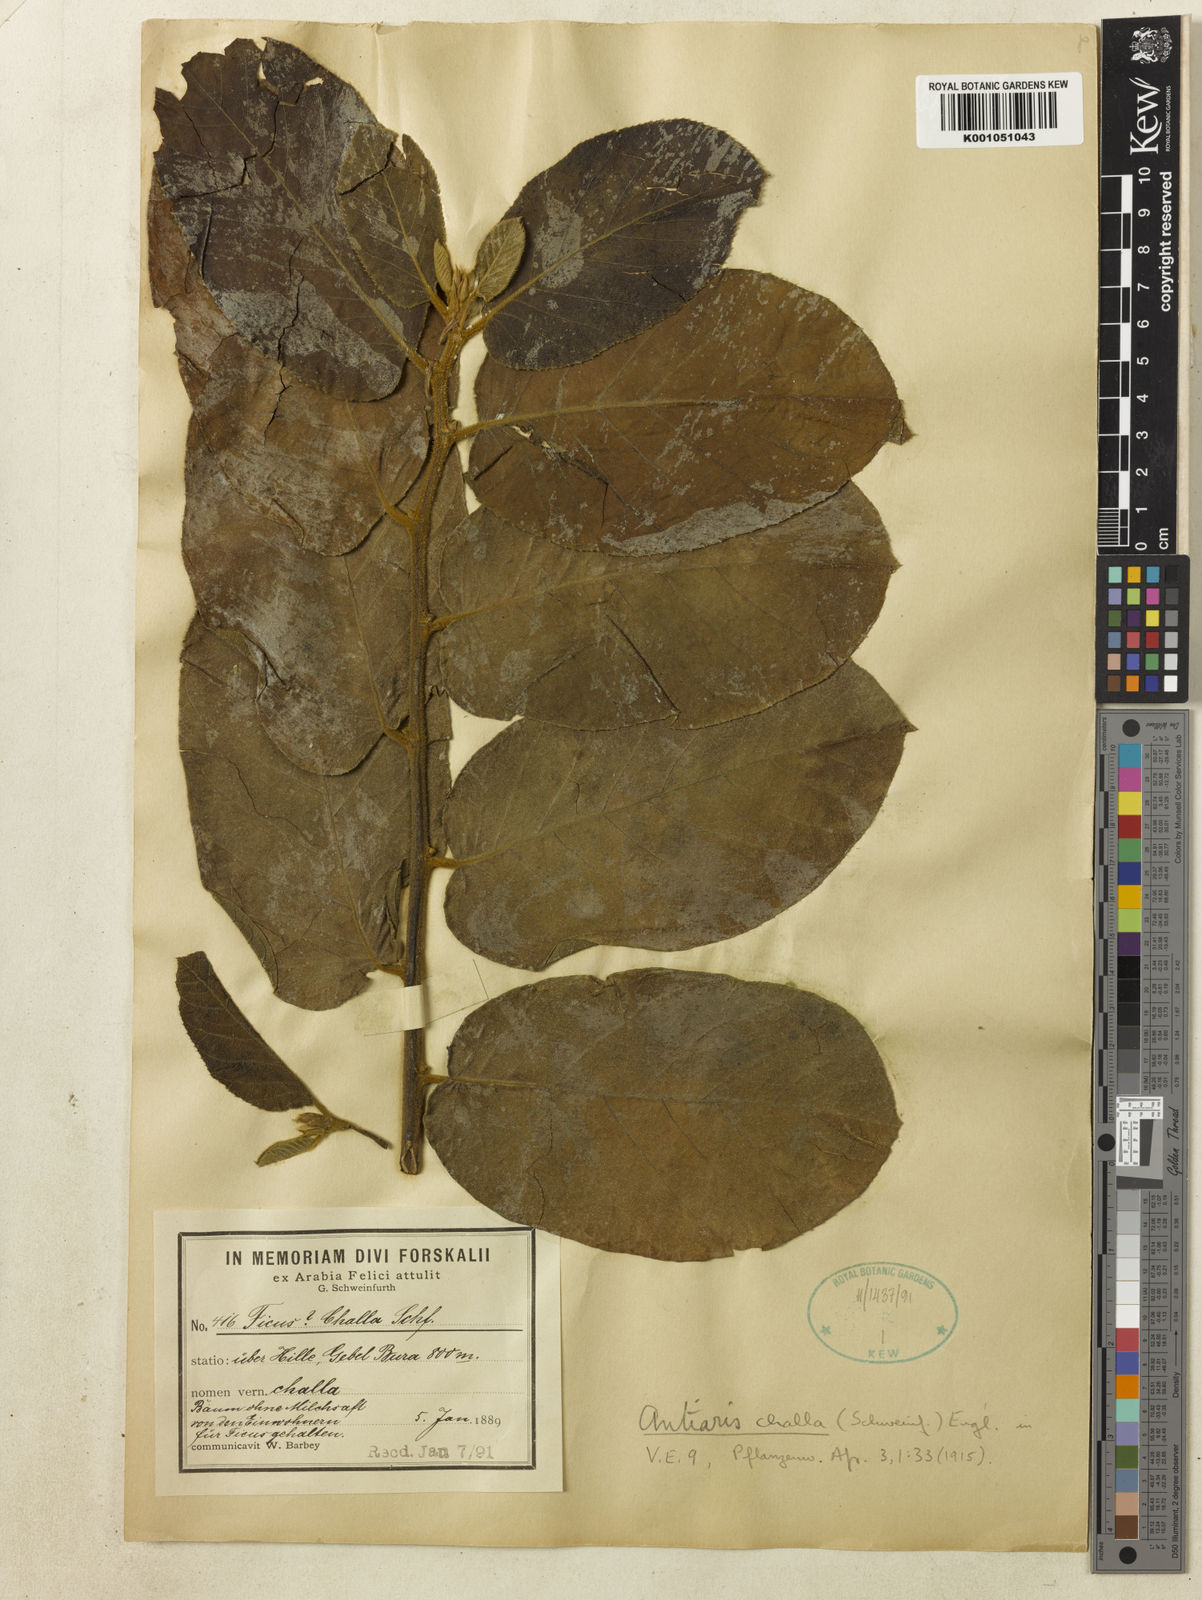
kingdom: Plantae
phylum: Tracheophyta
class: Magnoliopsida
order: Rosales
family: Moraceae
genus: Antiaris
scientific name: Antiaris toxicaria
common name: Sackingtree
